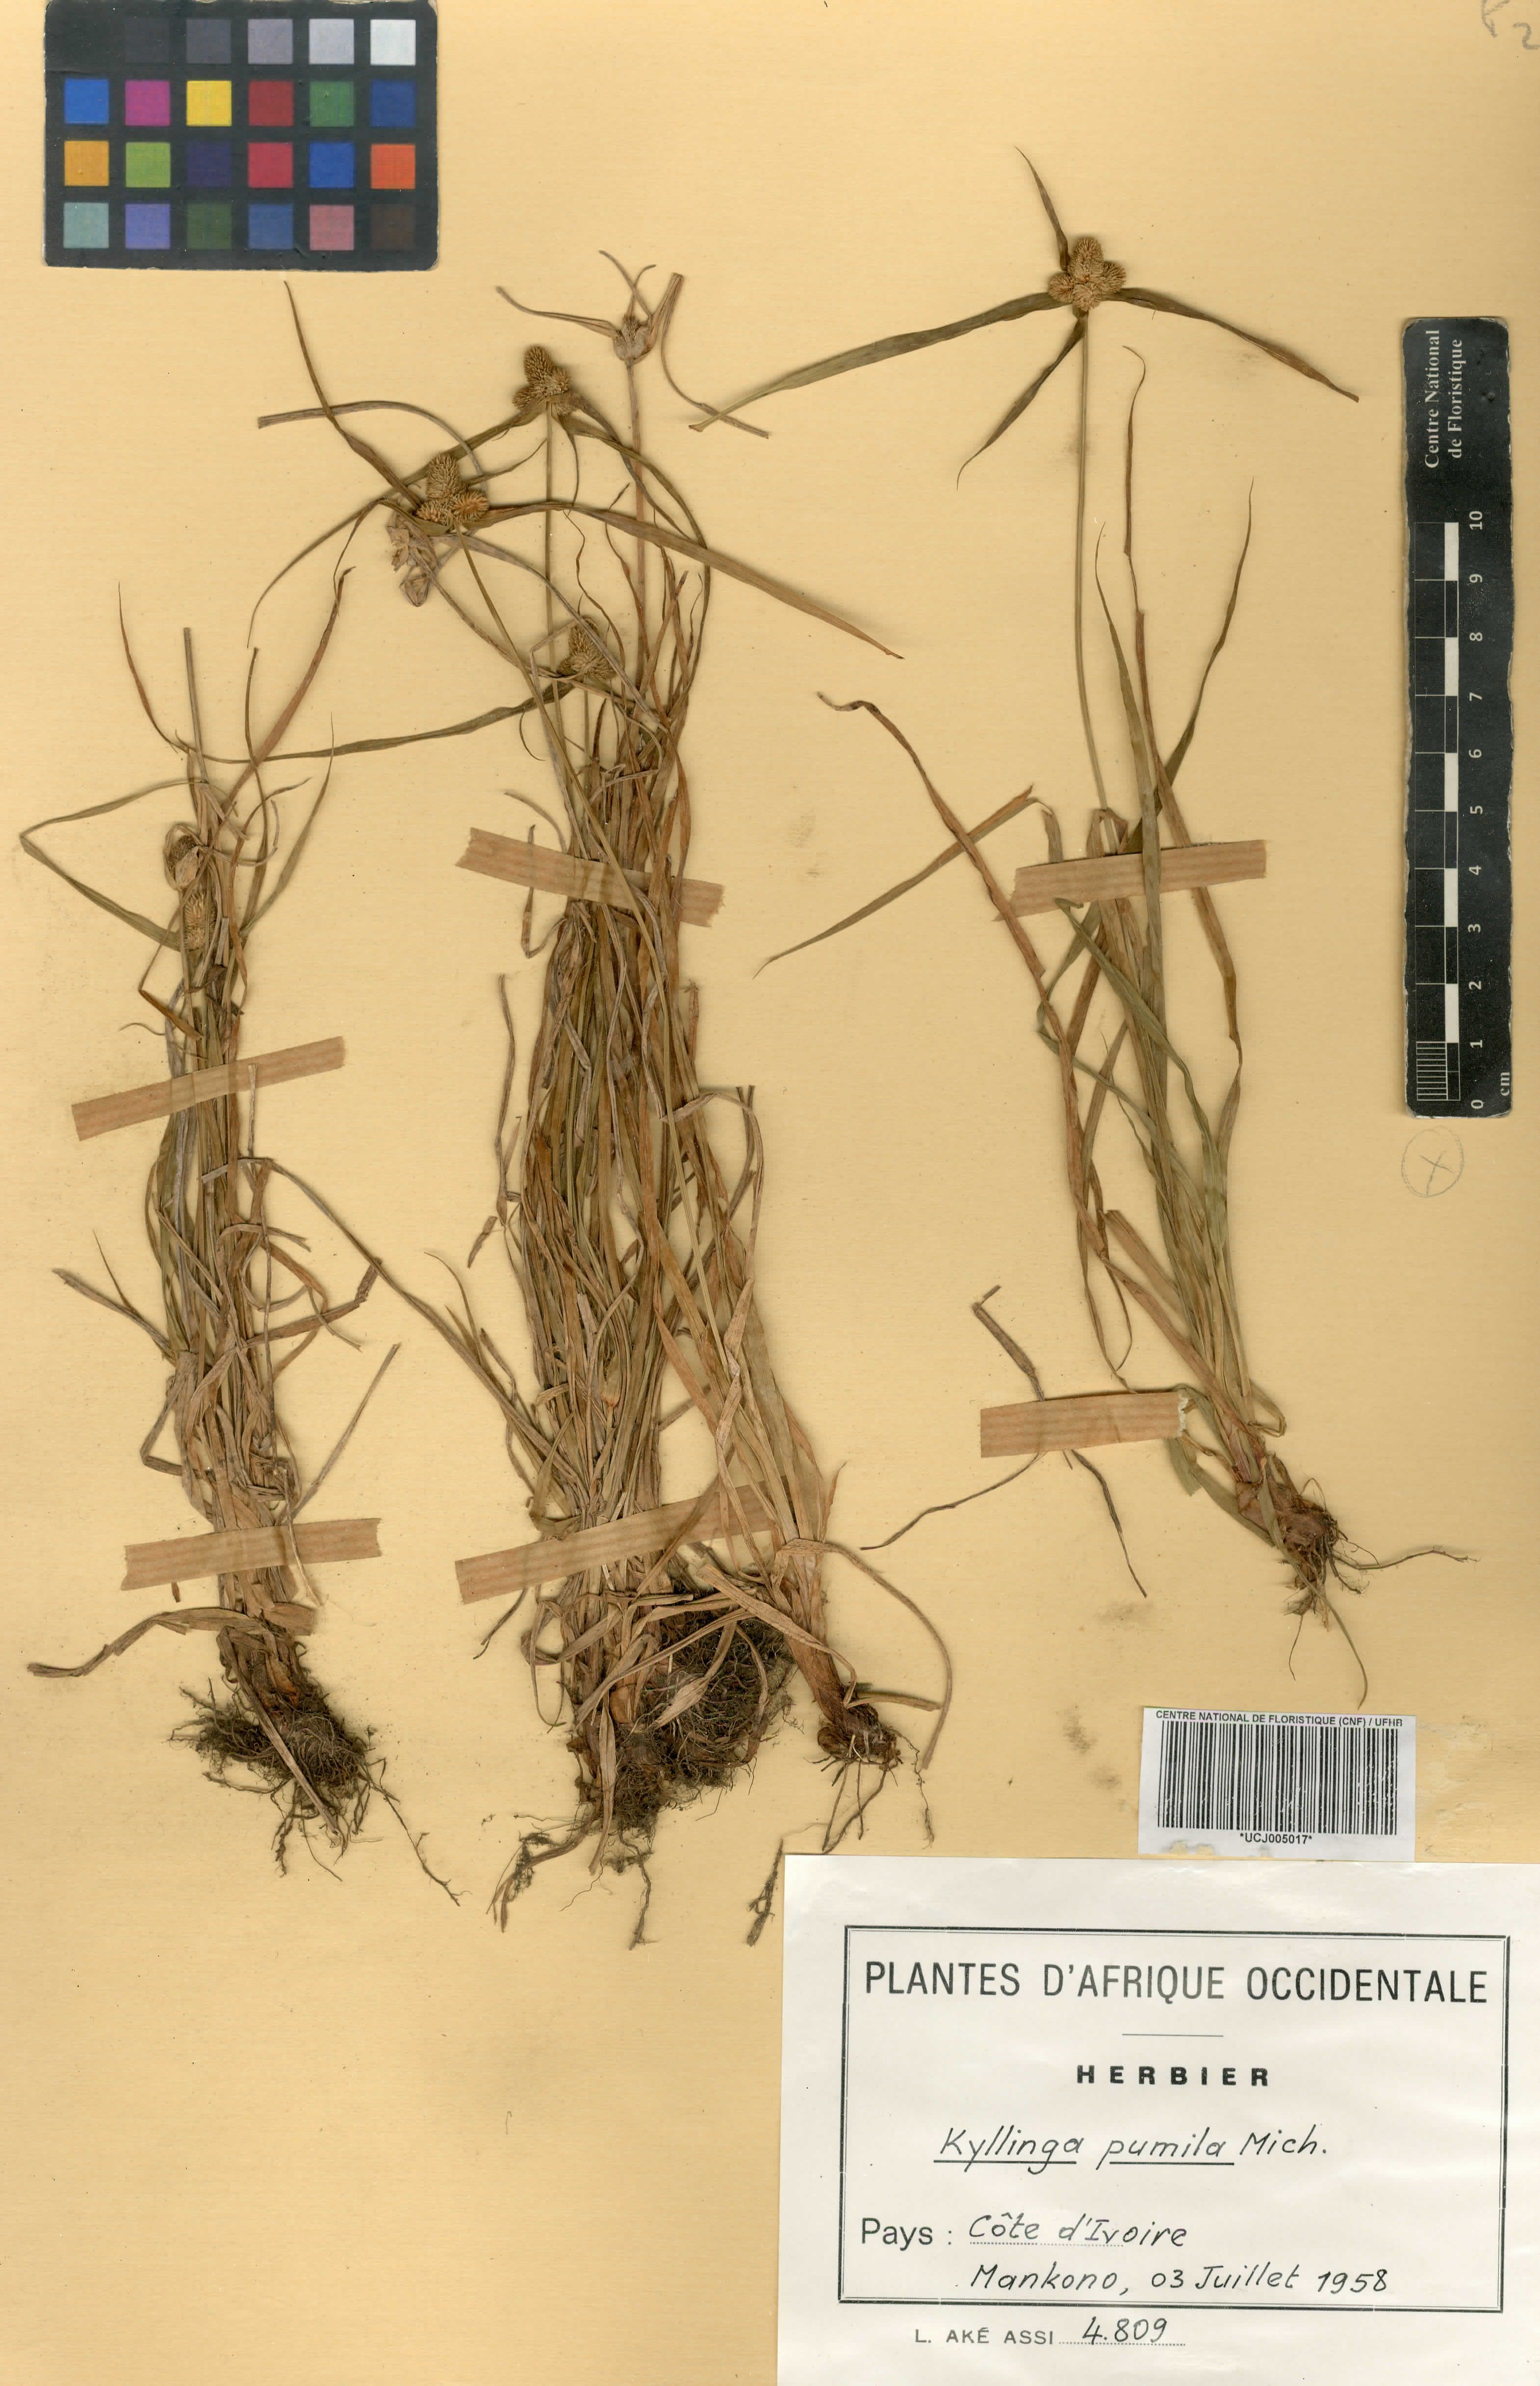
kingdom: Plantae
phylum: Tracheophyta
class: Liliopsida
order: Poales
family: Cyperaceae
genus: Cyperus
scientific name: Cyperus hortensis
